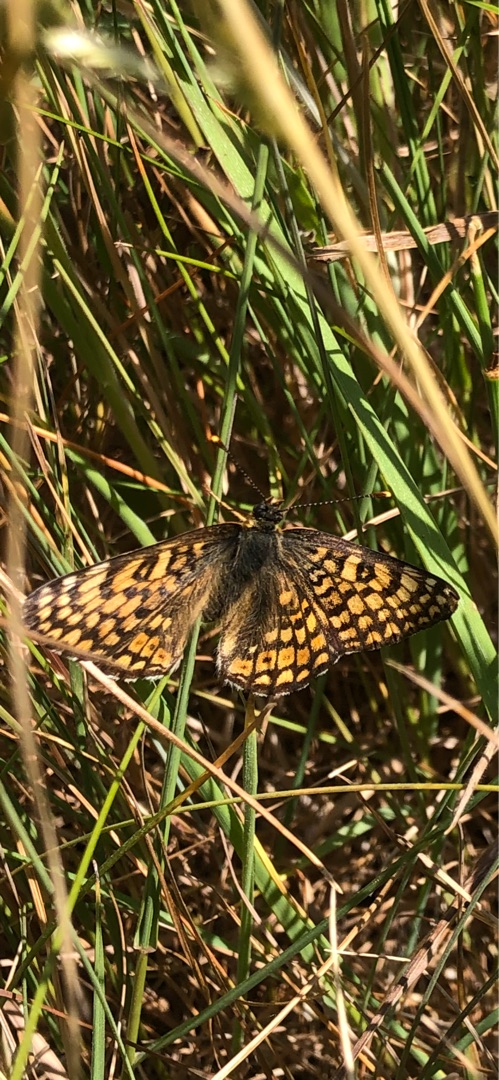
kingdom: Animalia
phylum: Arthropoda
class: Insecta
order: Lepidoptera
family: Nymphalidae
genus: Melitaea
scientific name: Melitaea cinxia
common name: Okkergul pletvinge
